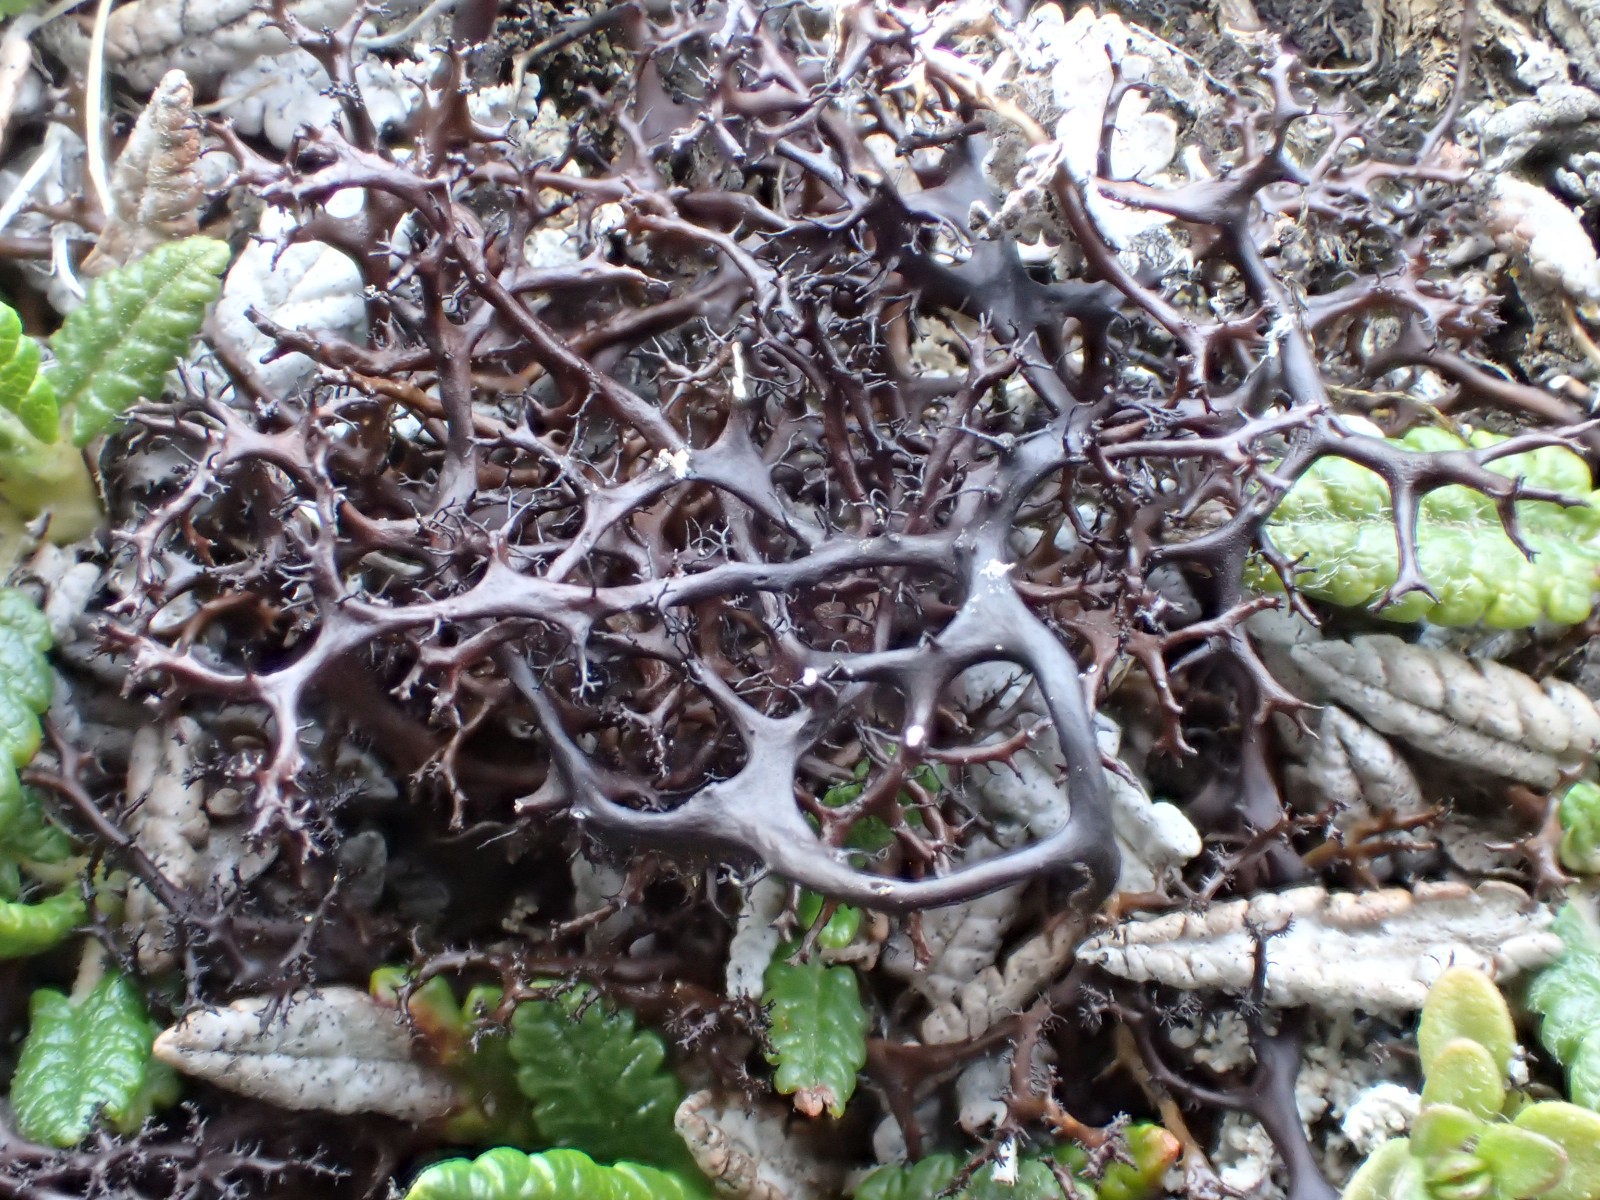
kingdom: Fungi
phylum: Ascomycota
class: Lecanoromycetes
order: Lecanorales
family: Parmeliaceae
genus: Cetraria
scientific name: Cetraria muricata
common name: tue-tjørnelav
